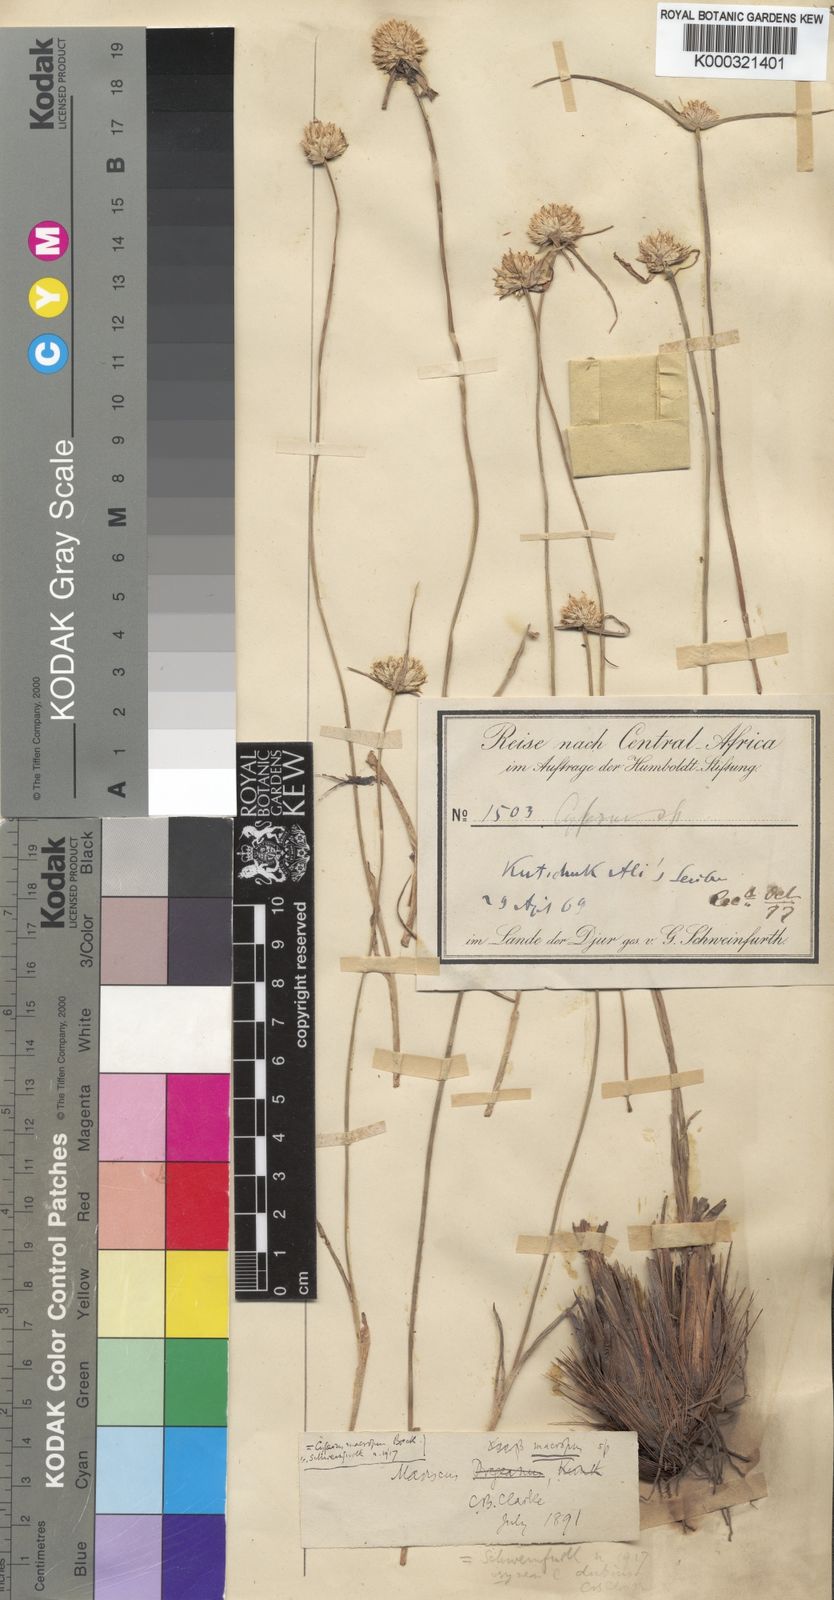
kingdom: Plantae
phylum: Tracheophyta
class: Liliopsida
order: Poales
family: Cyperaceae
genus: Cyperus
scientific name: Cyperus
